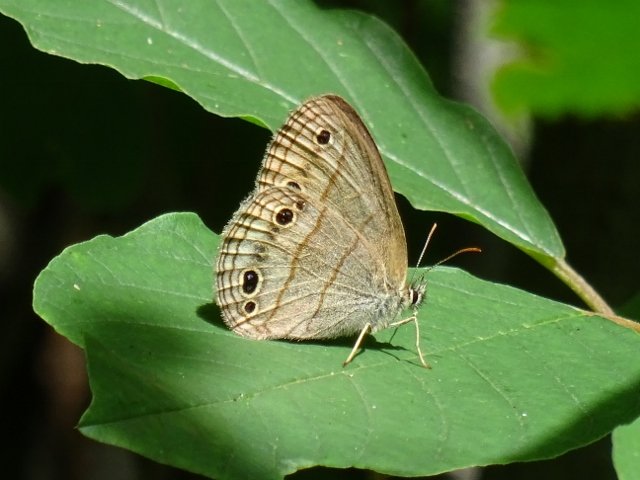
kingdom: Animalia
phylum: Arthropoda
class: Insecta
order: Lepidoptera
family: Nymphalidae
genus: Euptychia
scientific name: Euptychia cymela
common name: Little Wood Satyr
